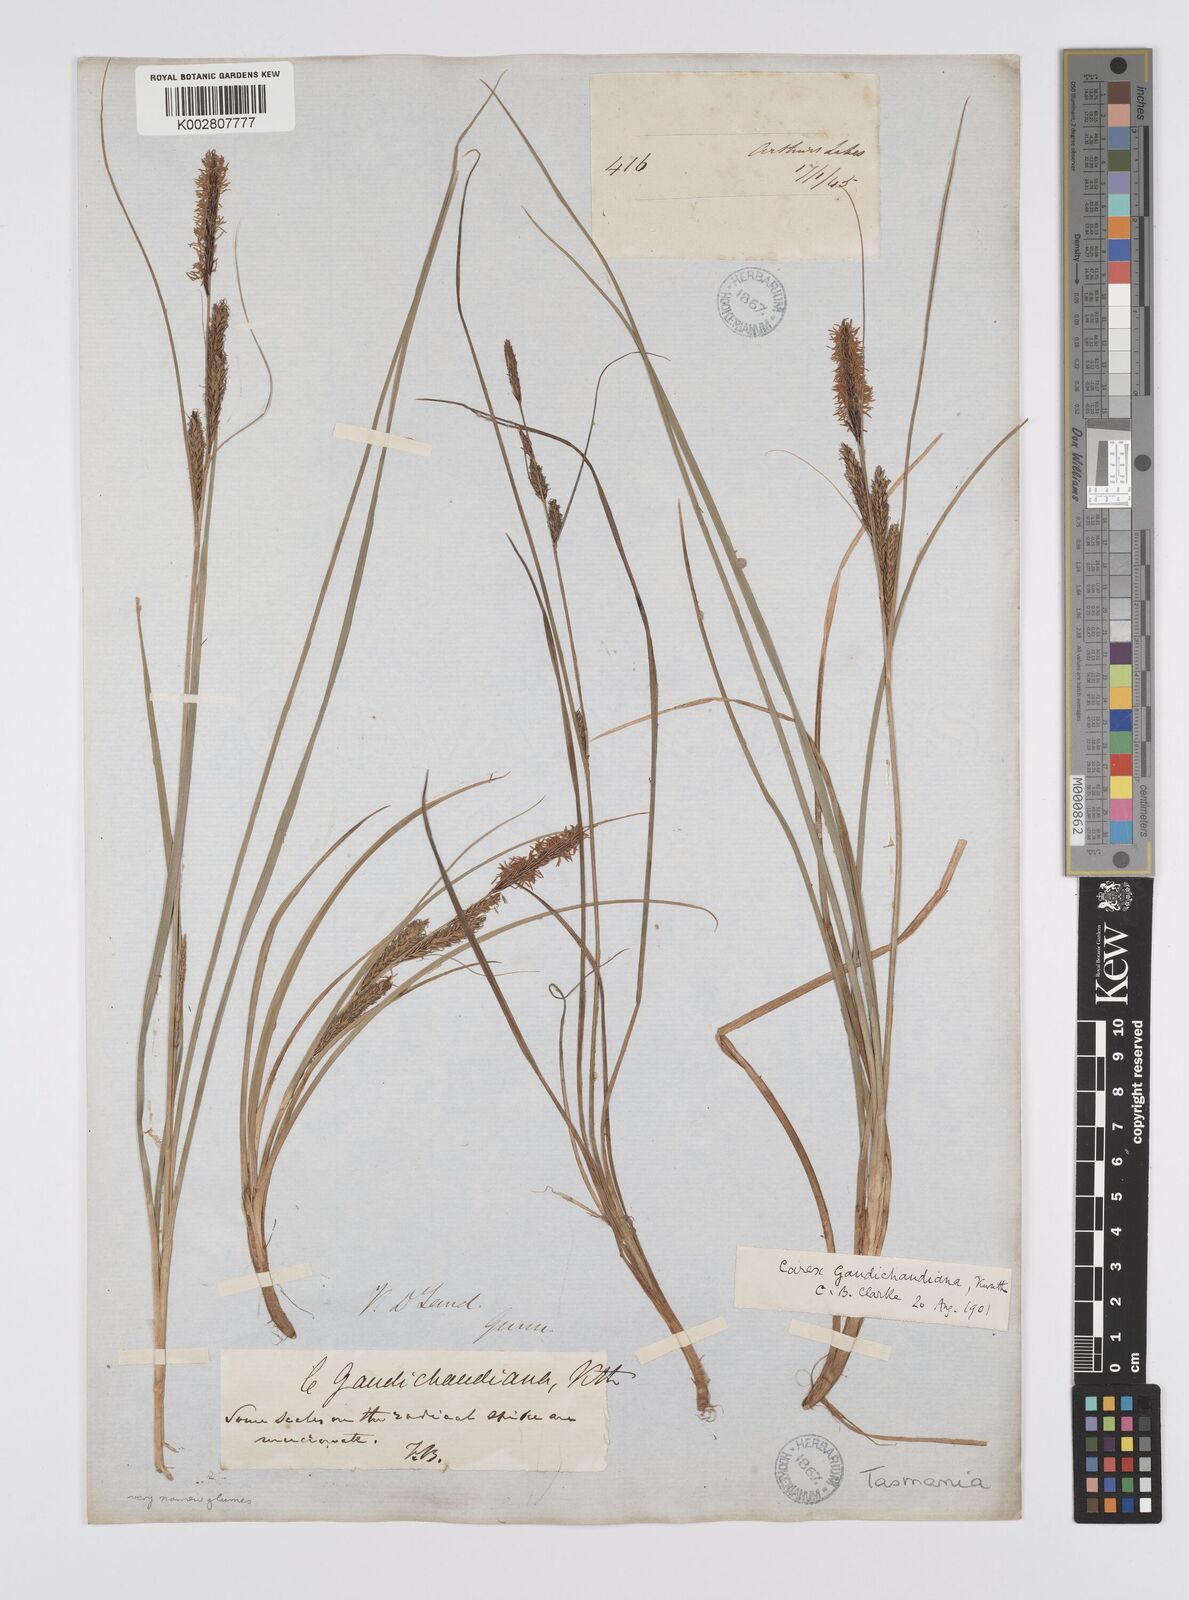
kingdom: Plantae
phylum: Tracheophyta
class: Liliopsida
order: Poales
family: Cyperaceae
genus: Carex
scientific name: Carex gaudichaudiana
